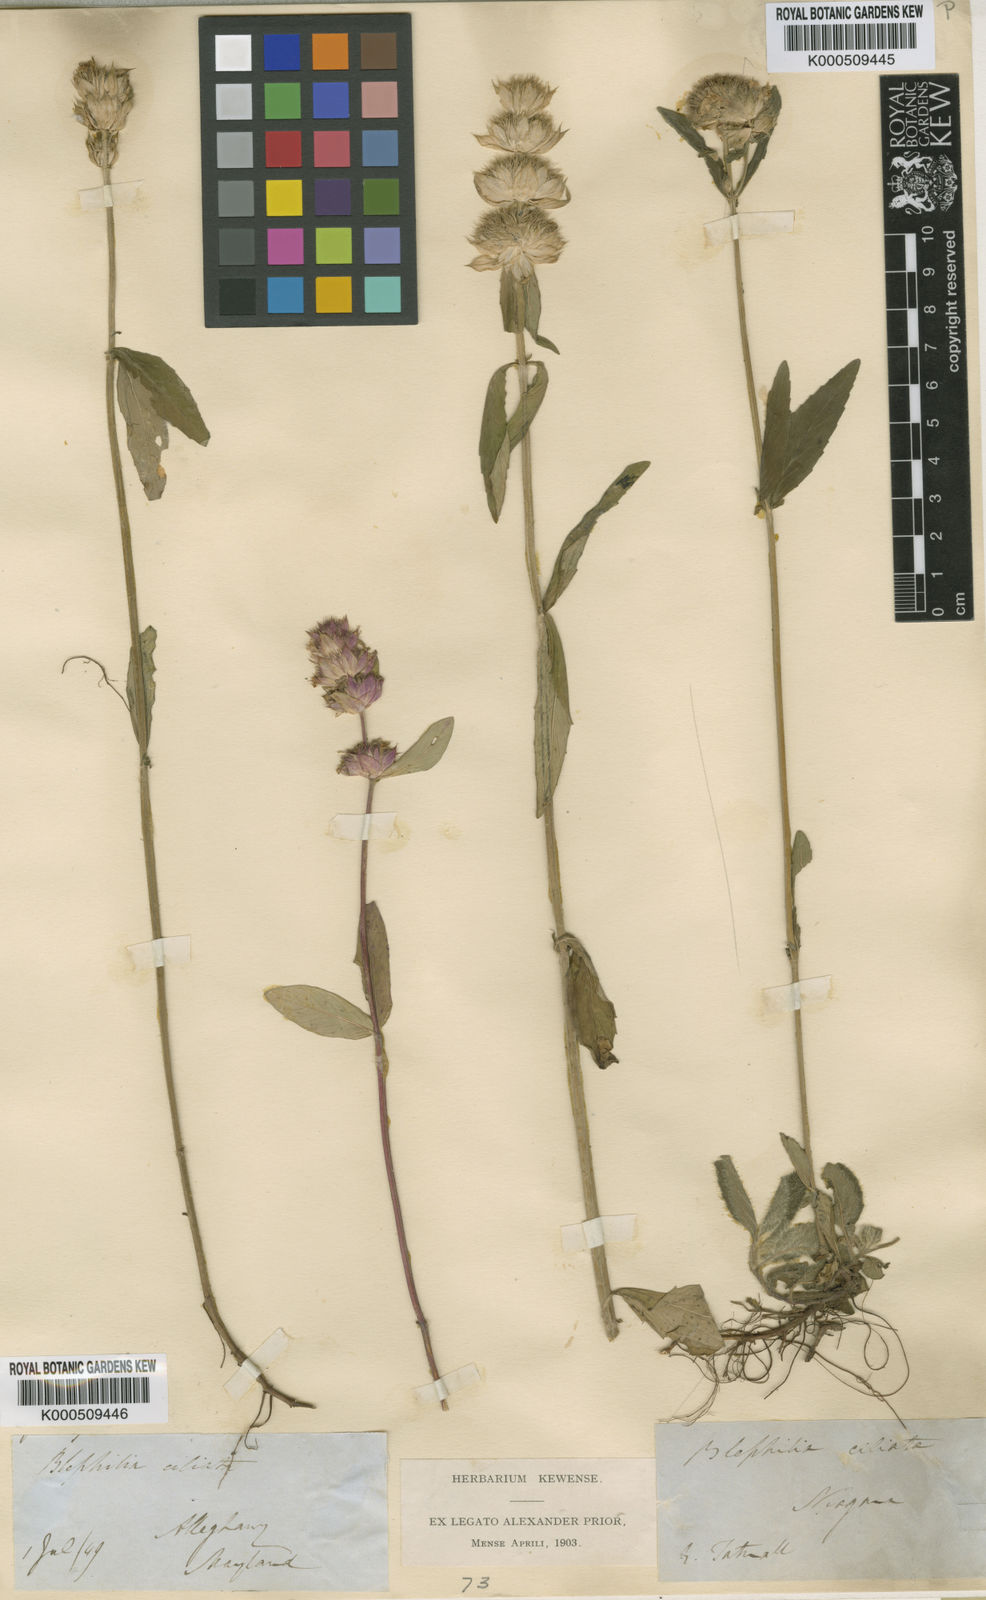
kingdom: Plantae
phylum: Tracheophyta
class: Magnoliopsida
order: Lamiales
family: Lamiaceae
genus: Blephilia
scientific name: Blephilia ciliata
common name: Downy blephilia
